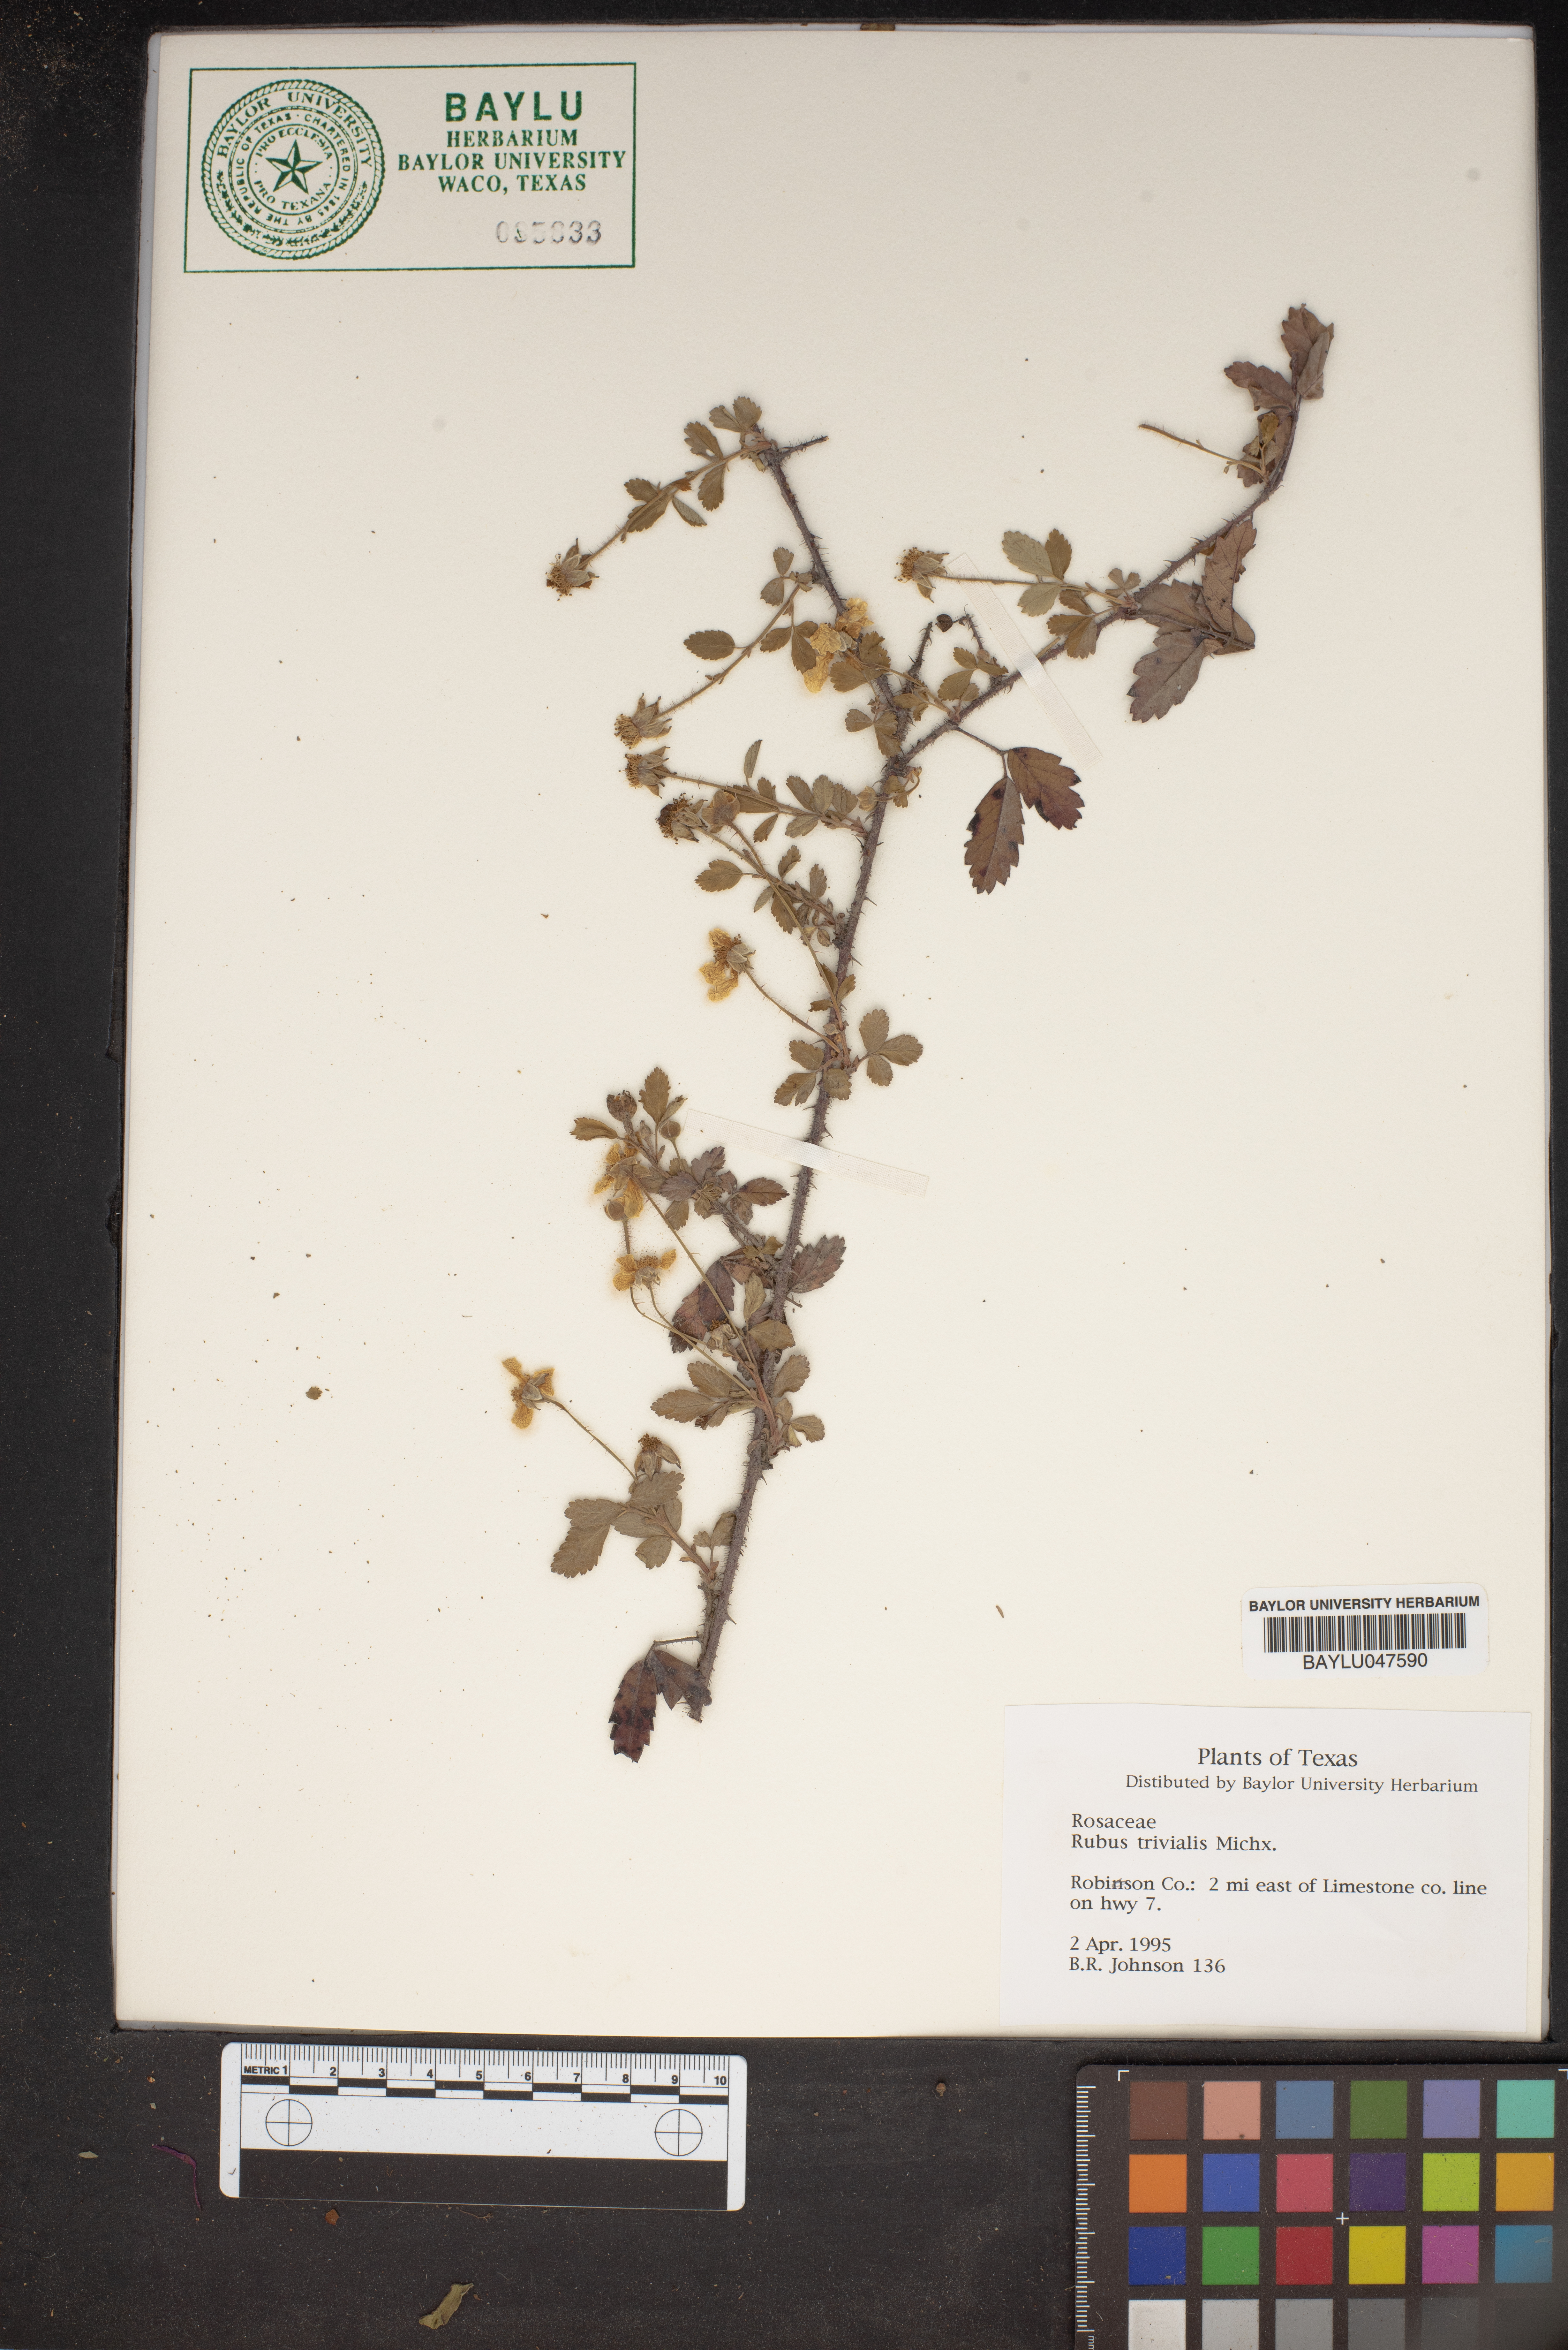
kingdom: Plantae
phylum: Tracheophyta
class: Magnoliopsida
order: Rosales
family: Rosaceae
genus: Rubus
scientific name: Rubus trivialis
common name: Southern dewberry
